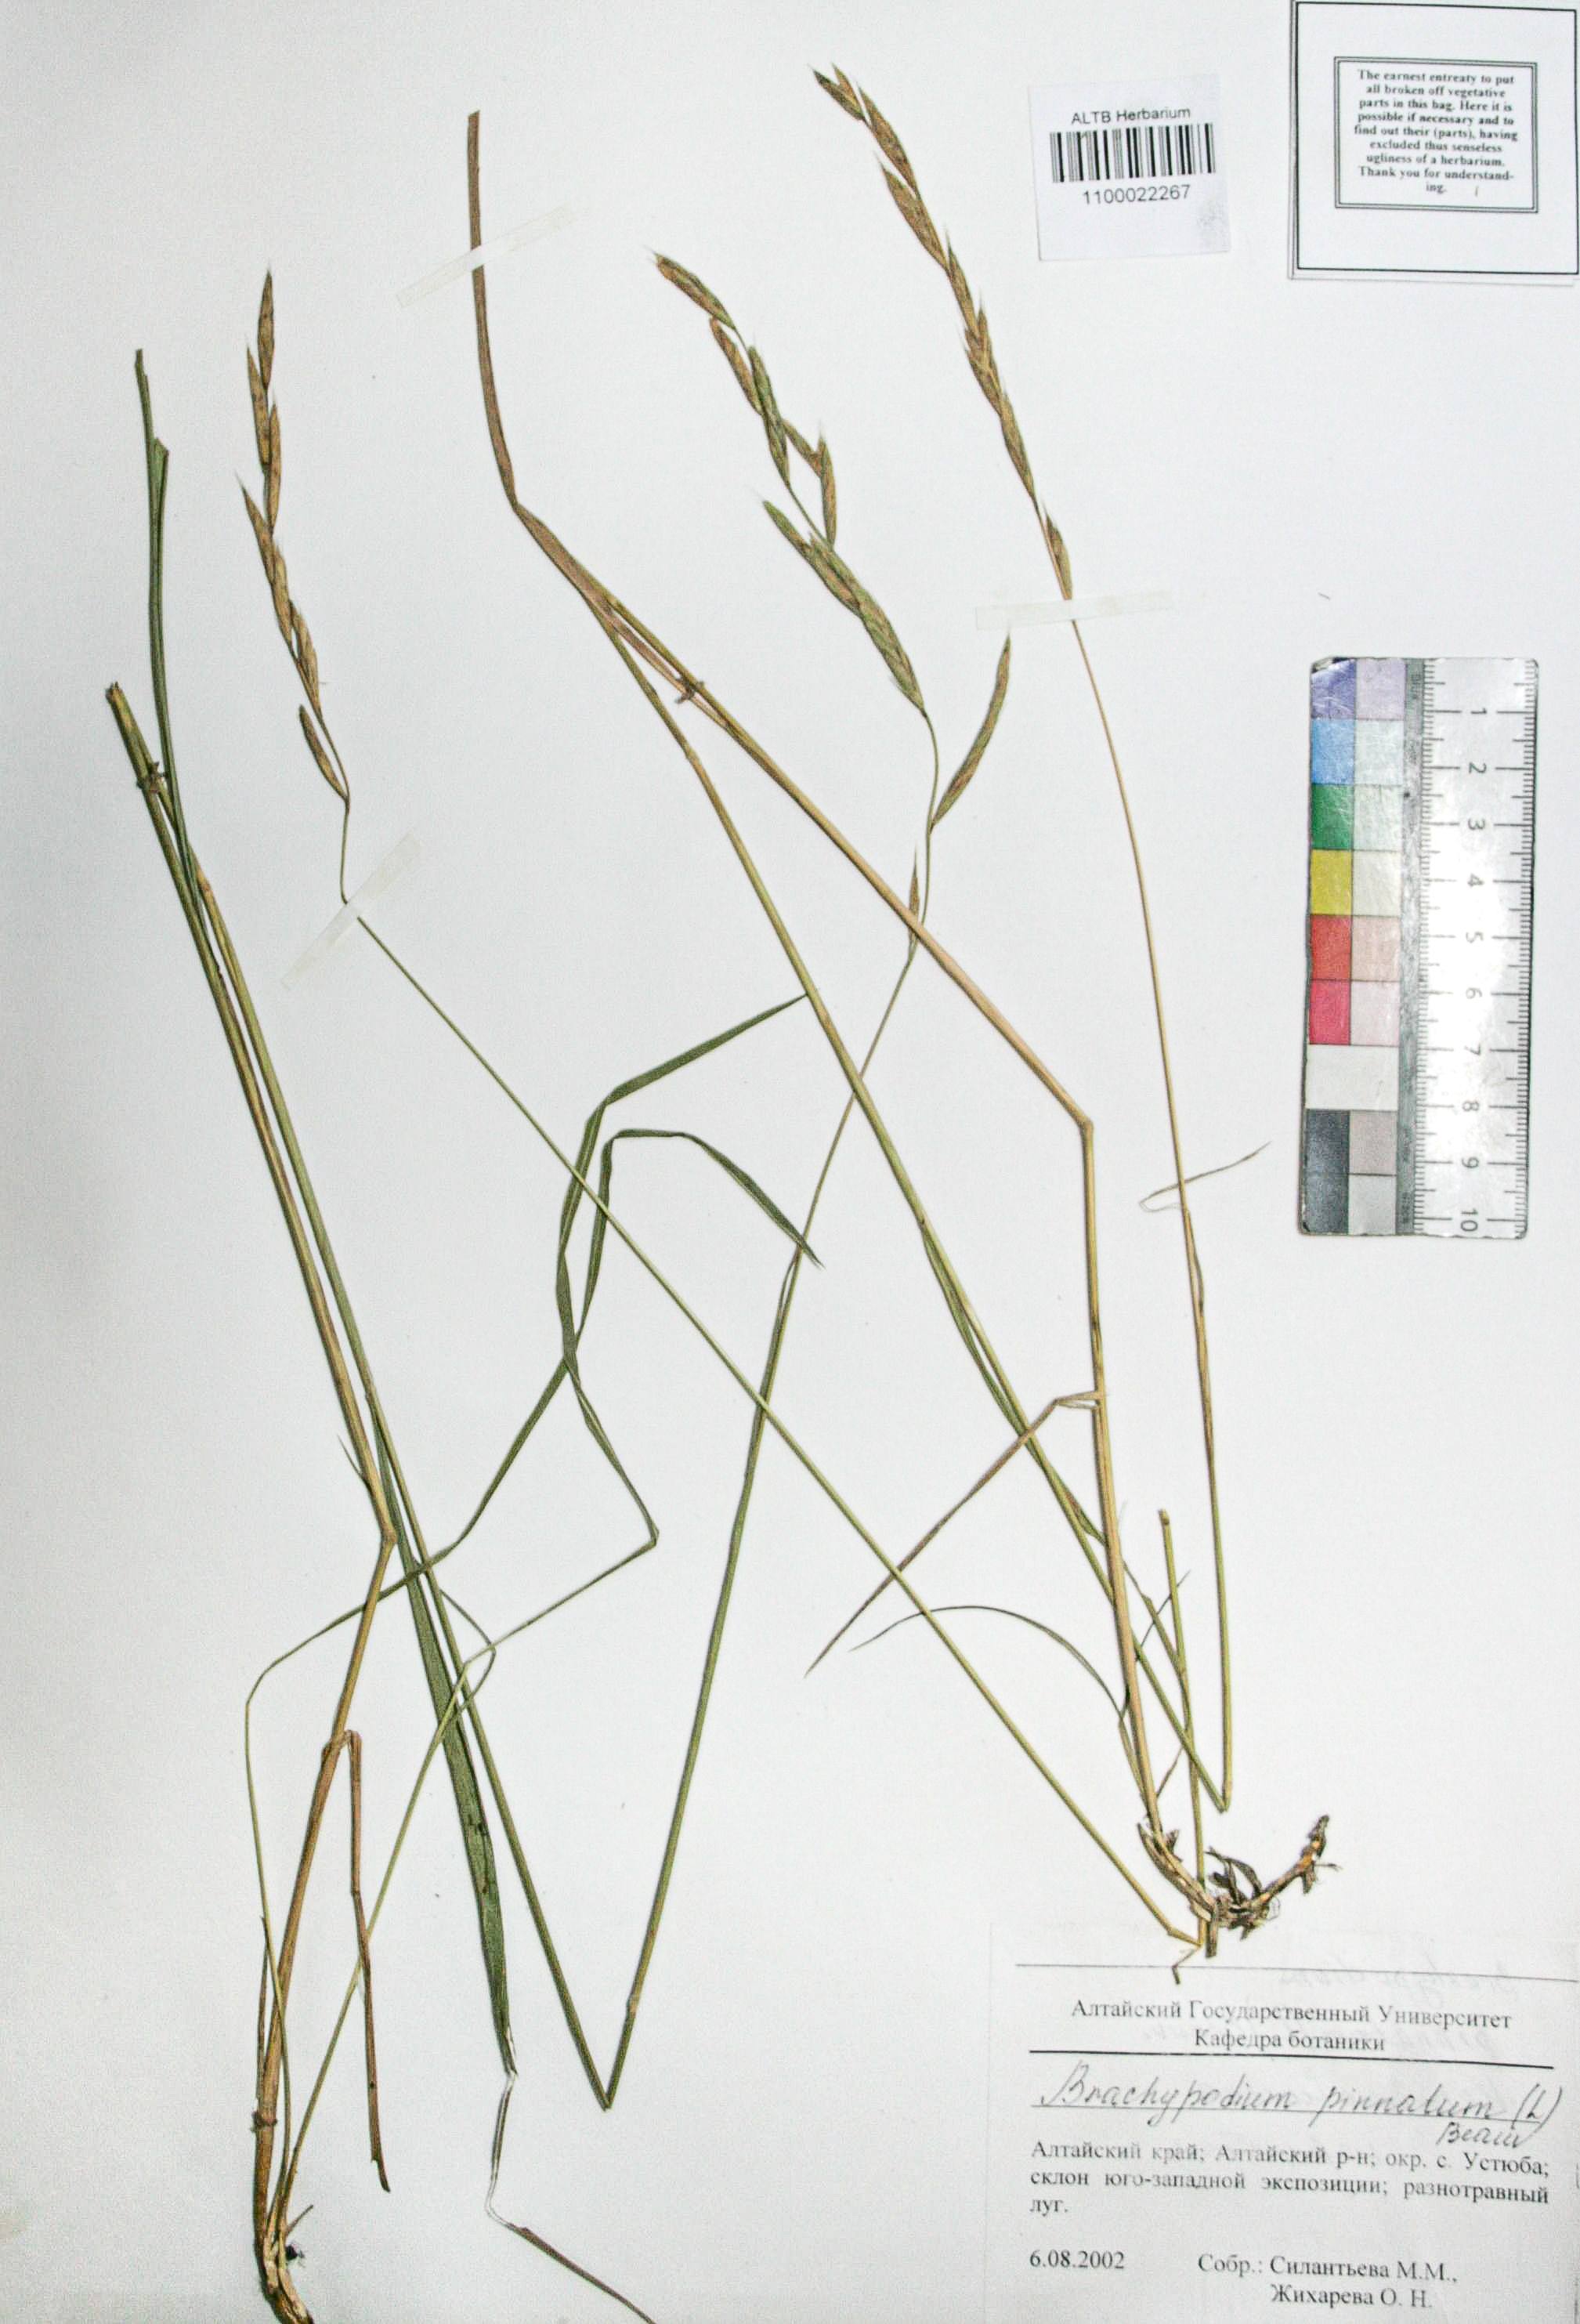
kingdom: Plantae
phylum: Tracheophyta
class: Liliopsida
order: Poales
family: Poaceae
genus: Brachypodium
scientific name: Brachypodium pinnatum
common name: Tor grass
